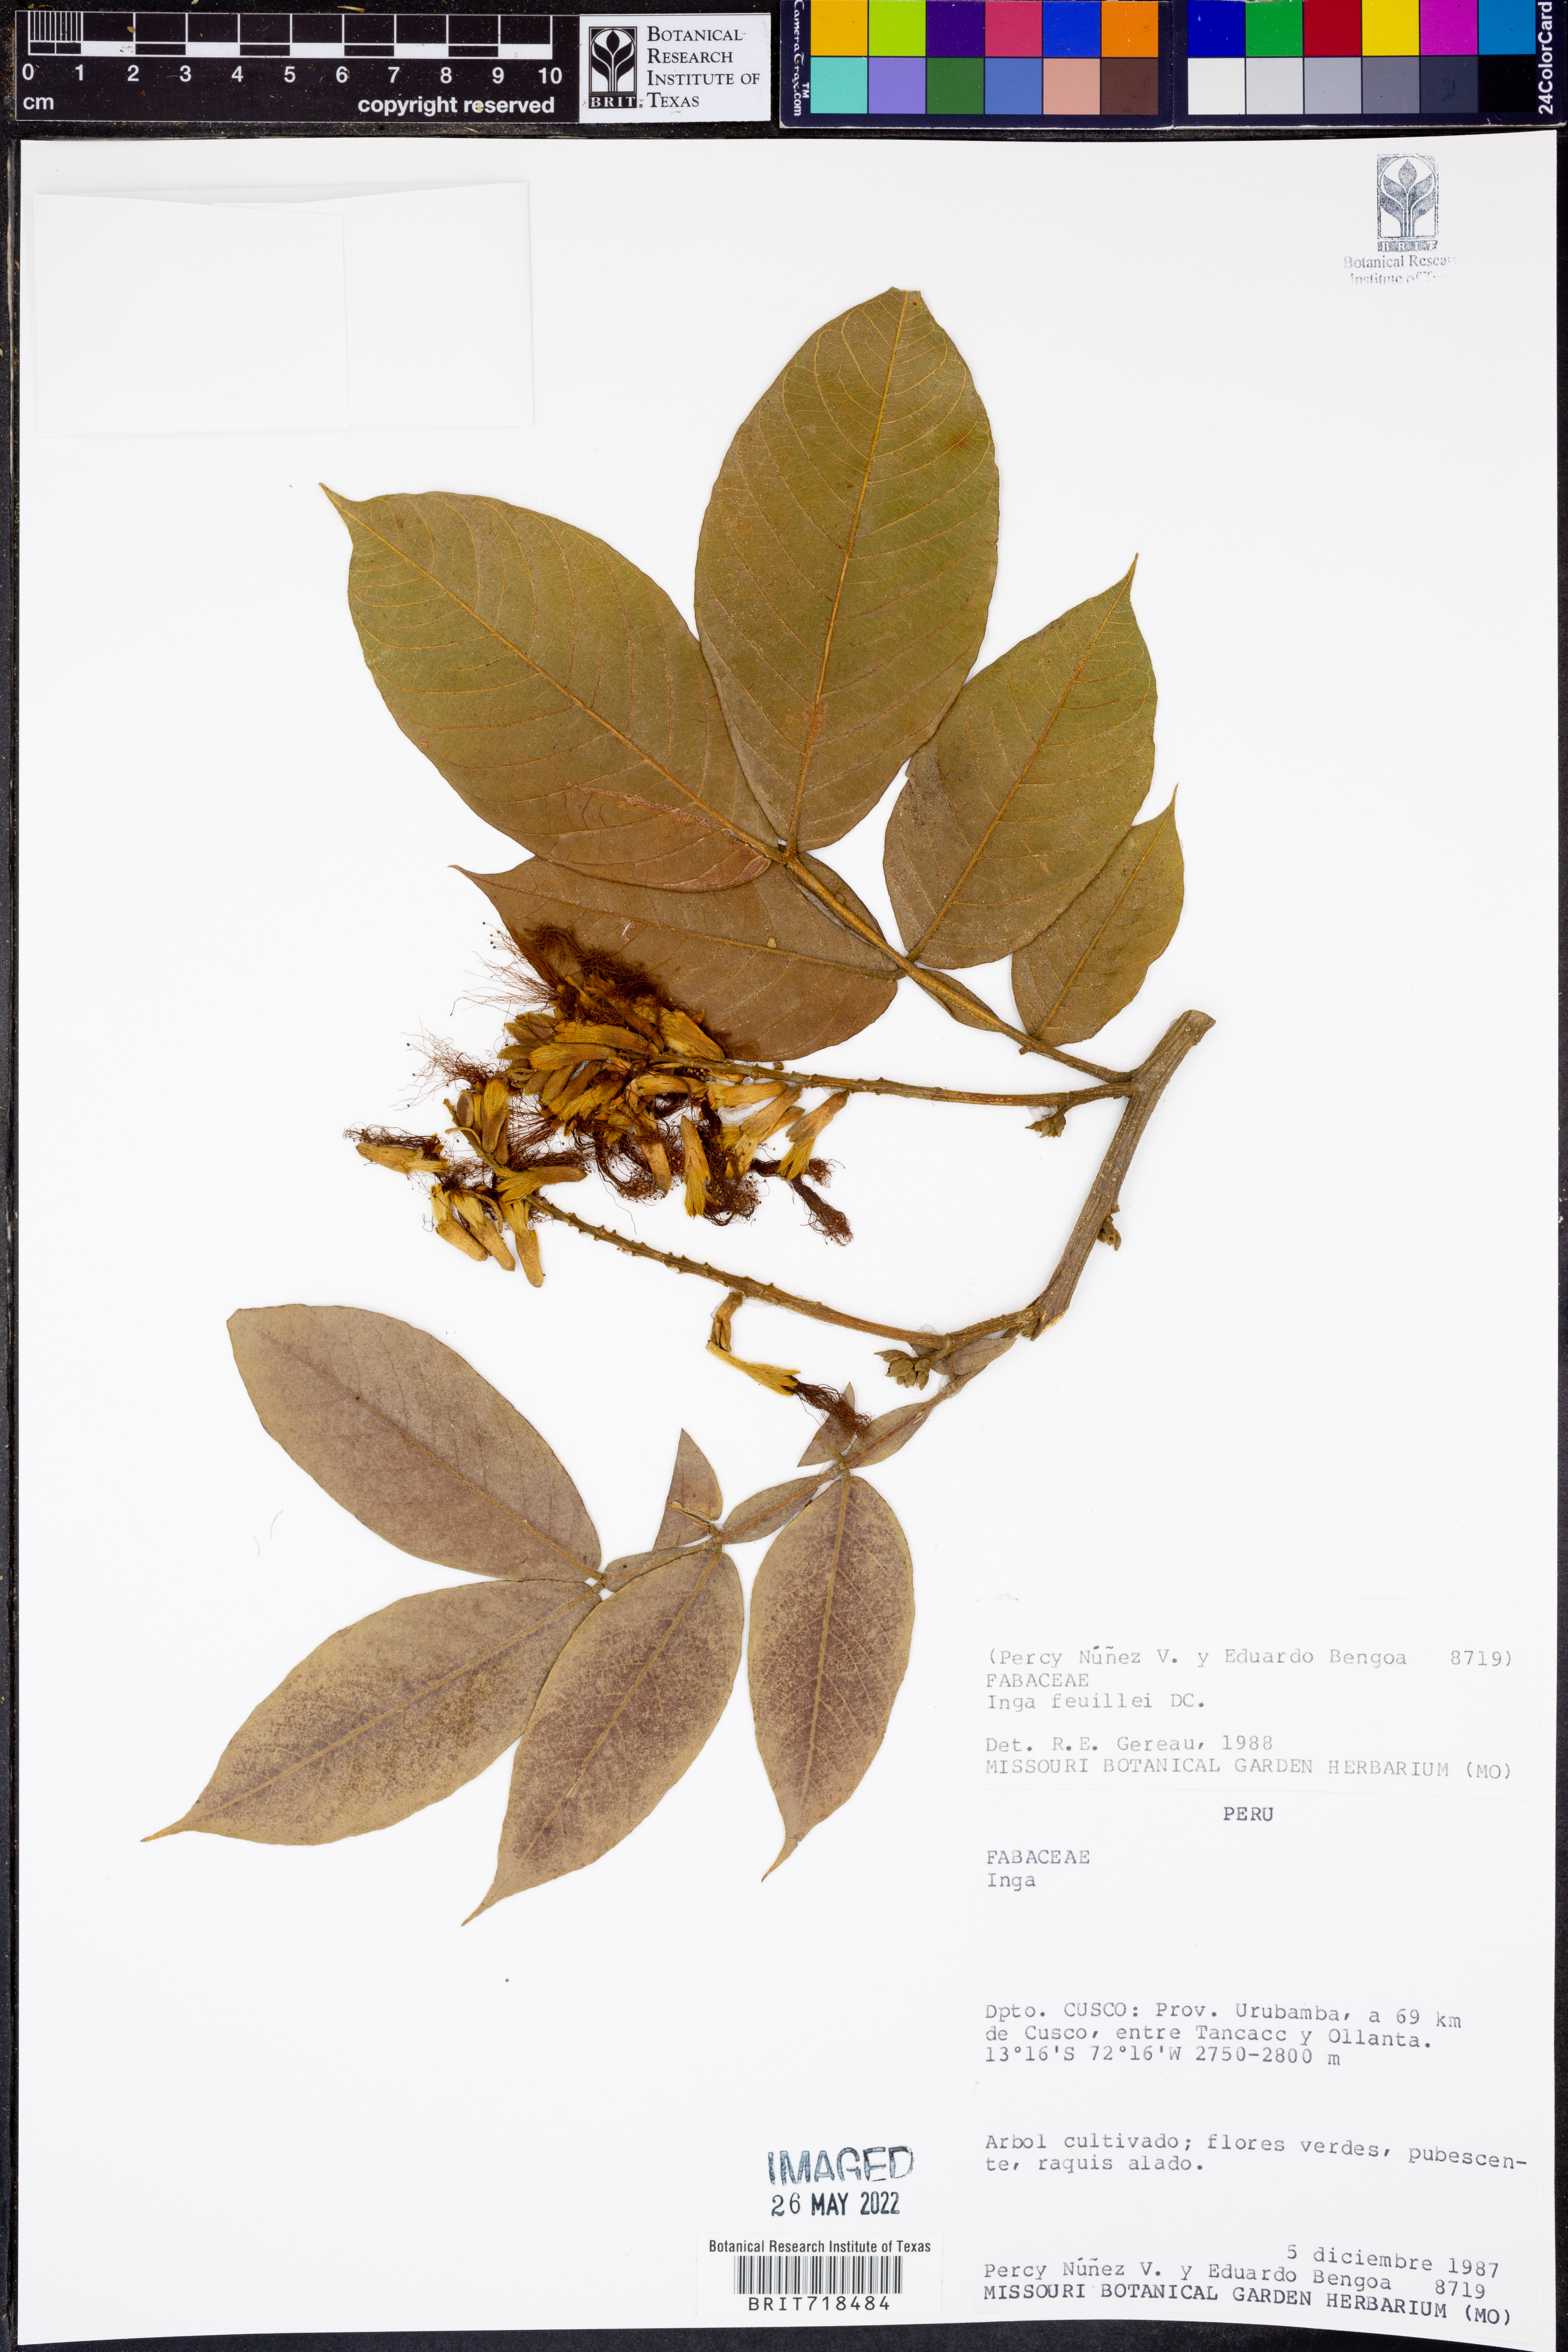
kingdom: Plantae
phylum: Tracheophyta
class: Magnoliopsida
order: Fabales
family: Fabaceae
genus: Inga
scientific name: Inga
